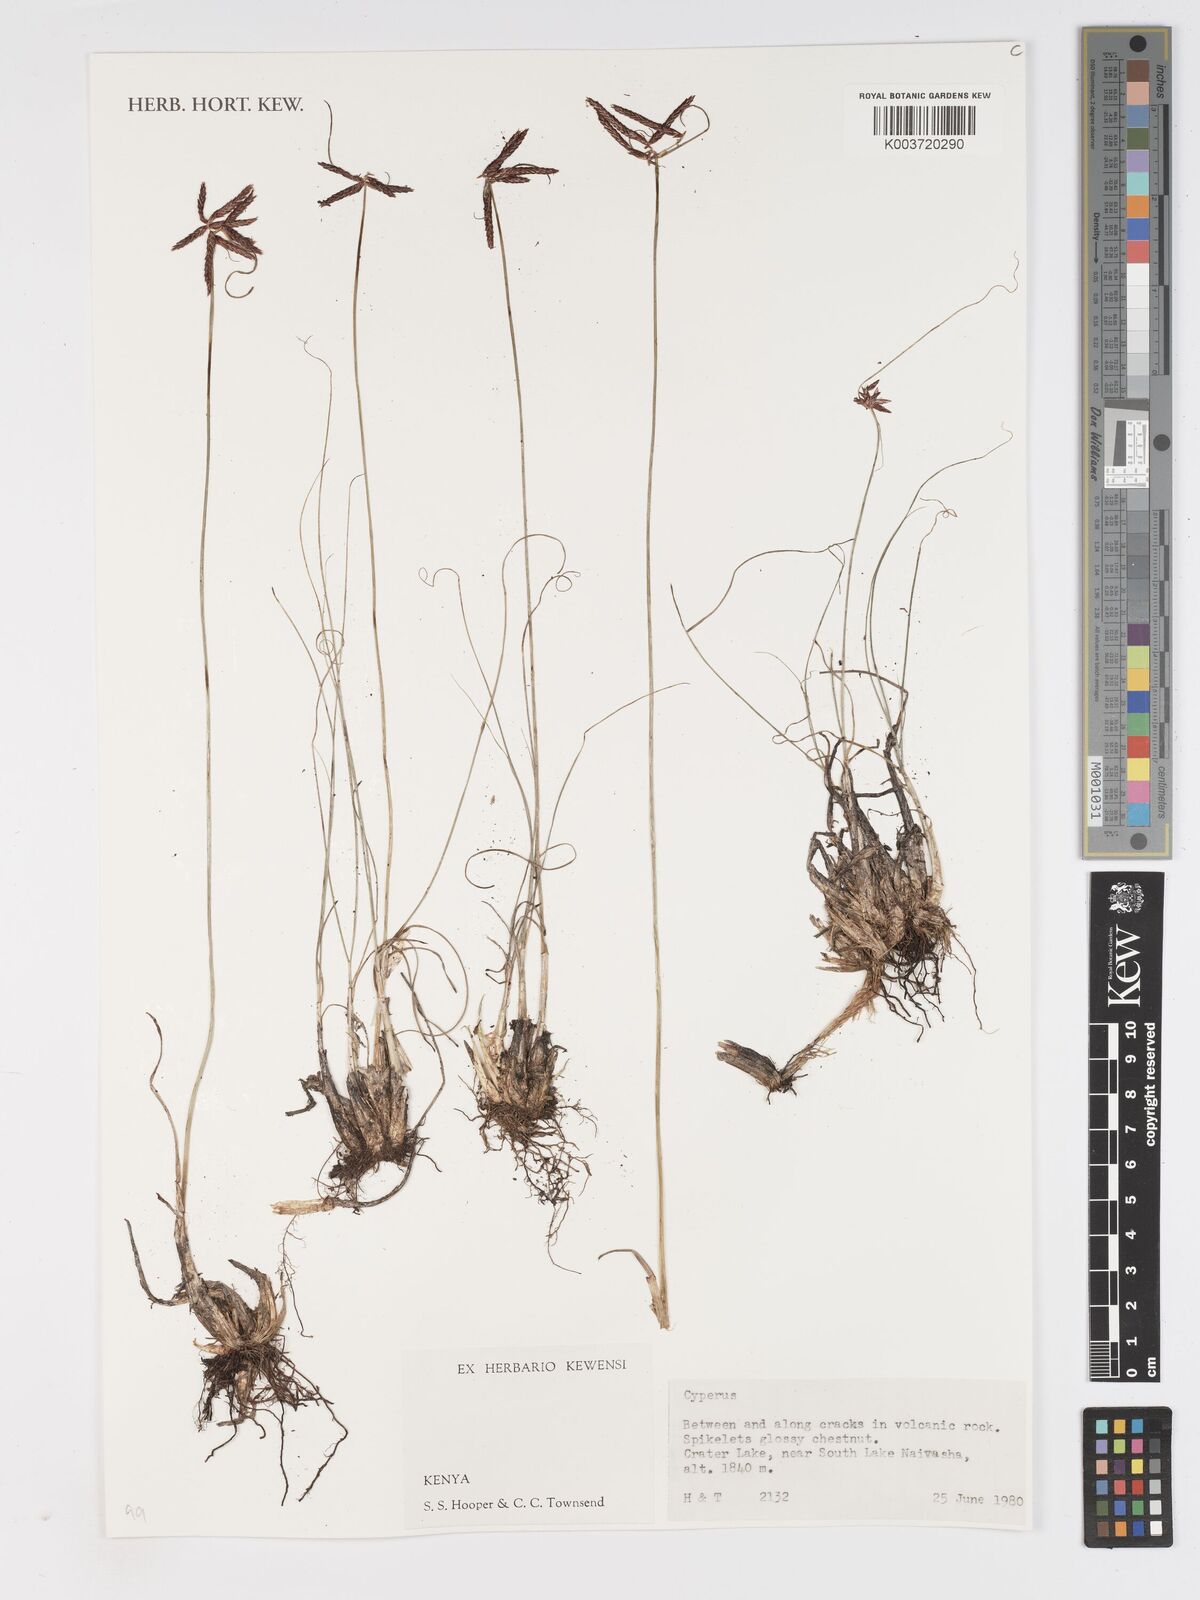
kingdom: Plantae
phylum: Tracheophyta
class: Liliopsida
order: Poales
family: Cyperaceae
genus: Cyperus
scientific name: Cyperus
